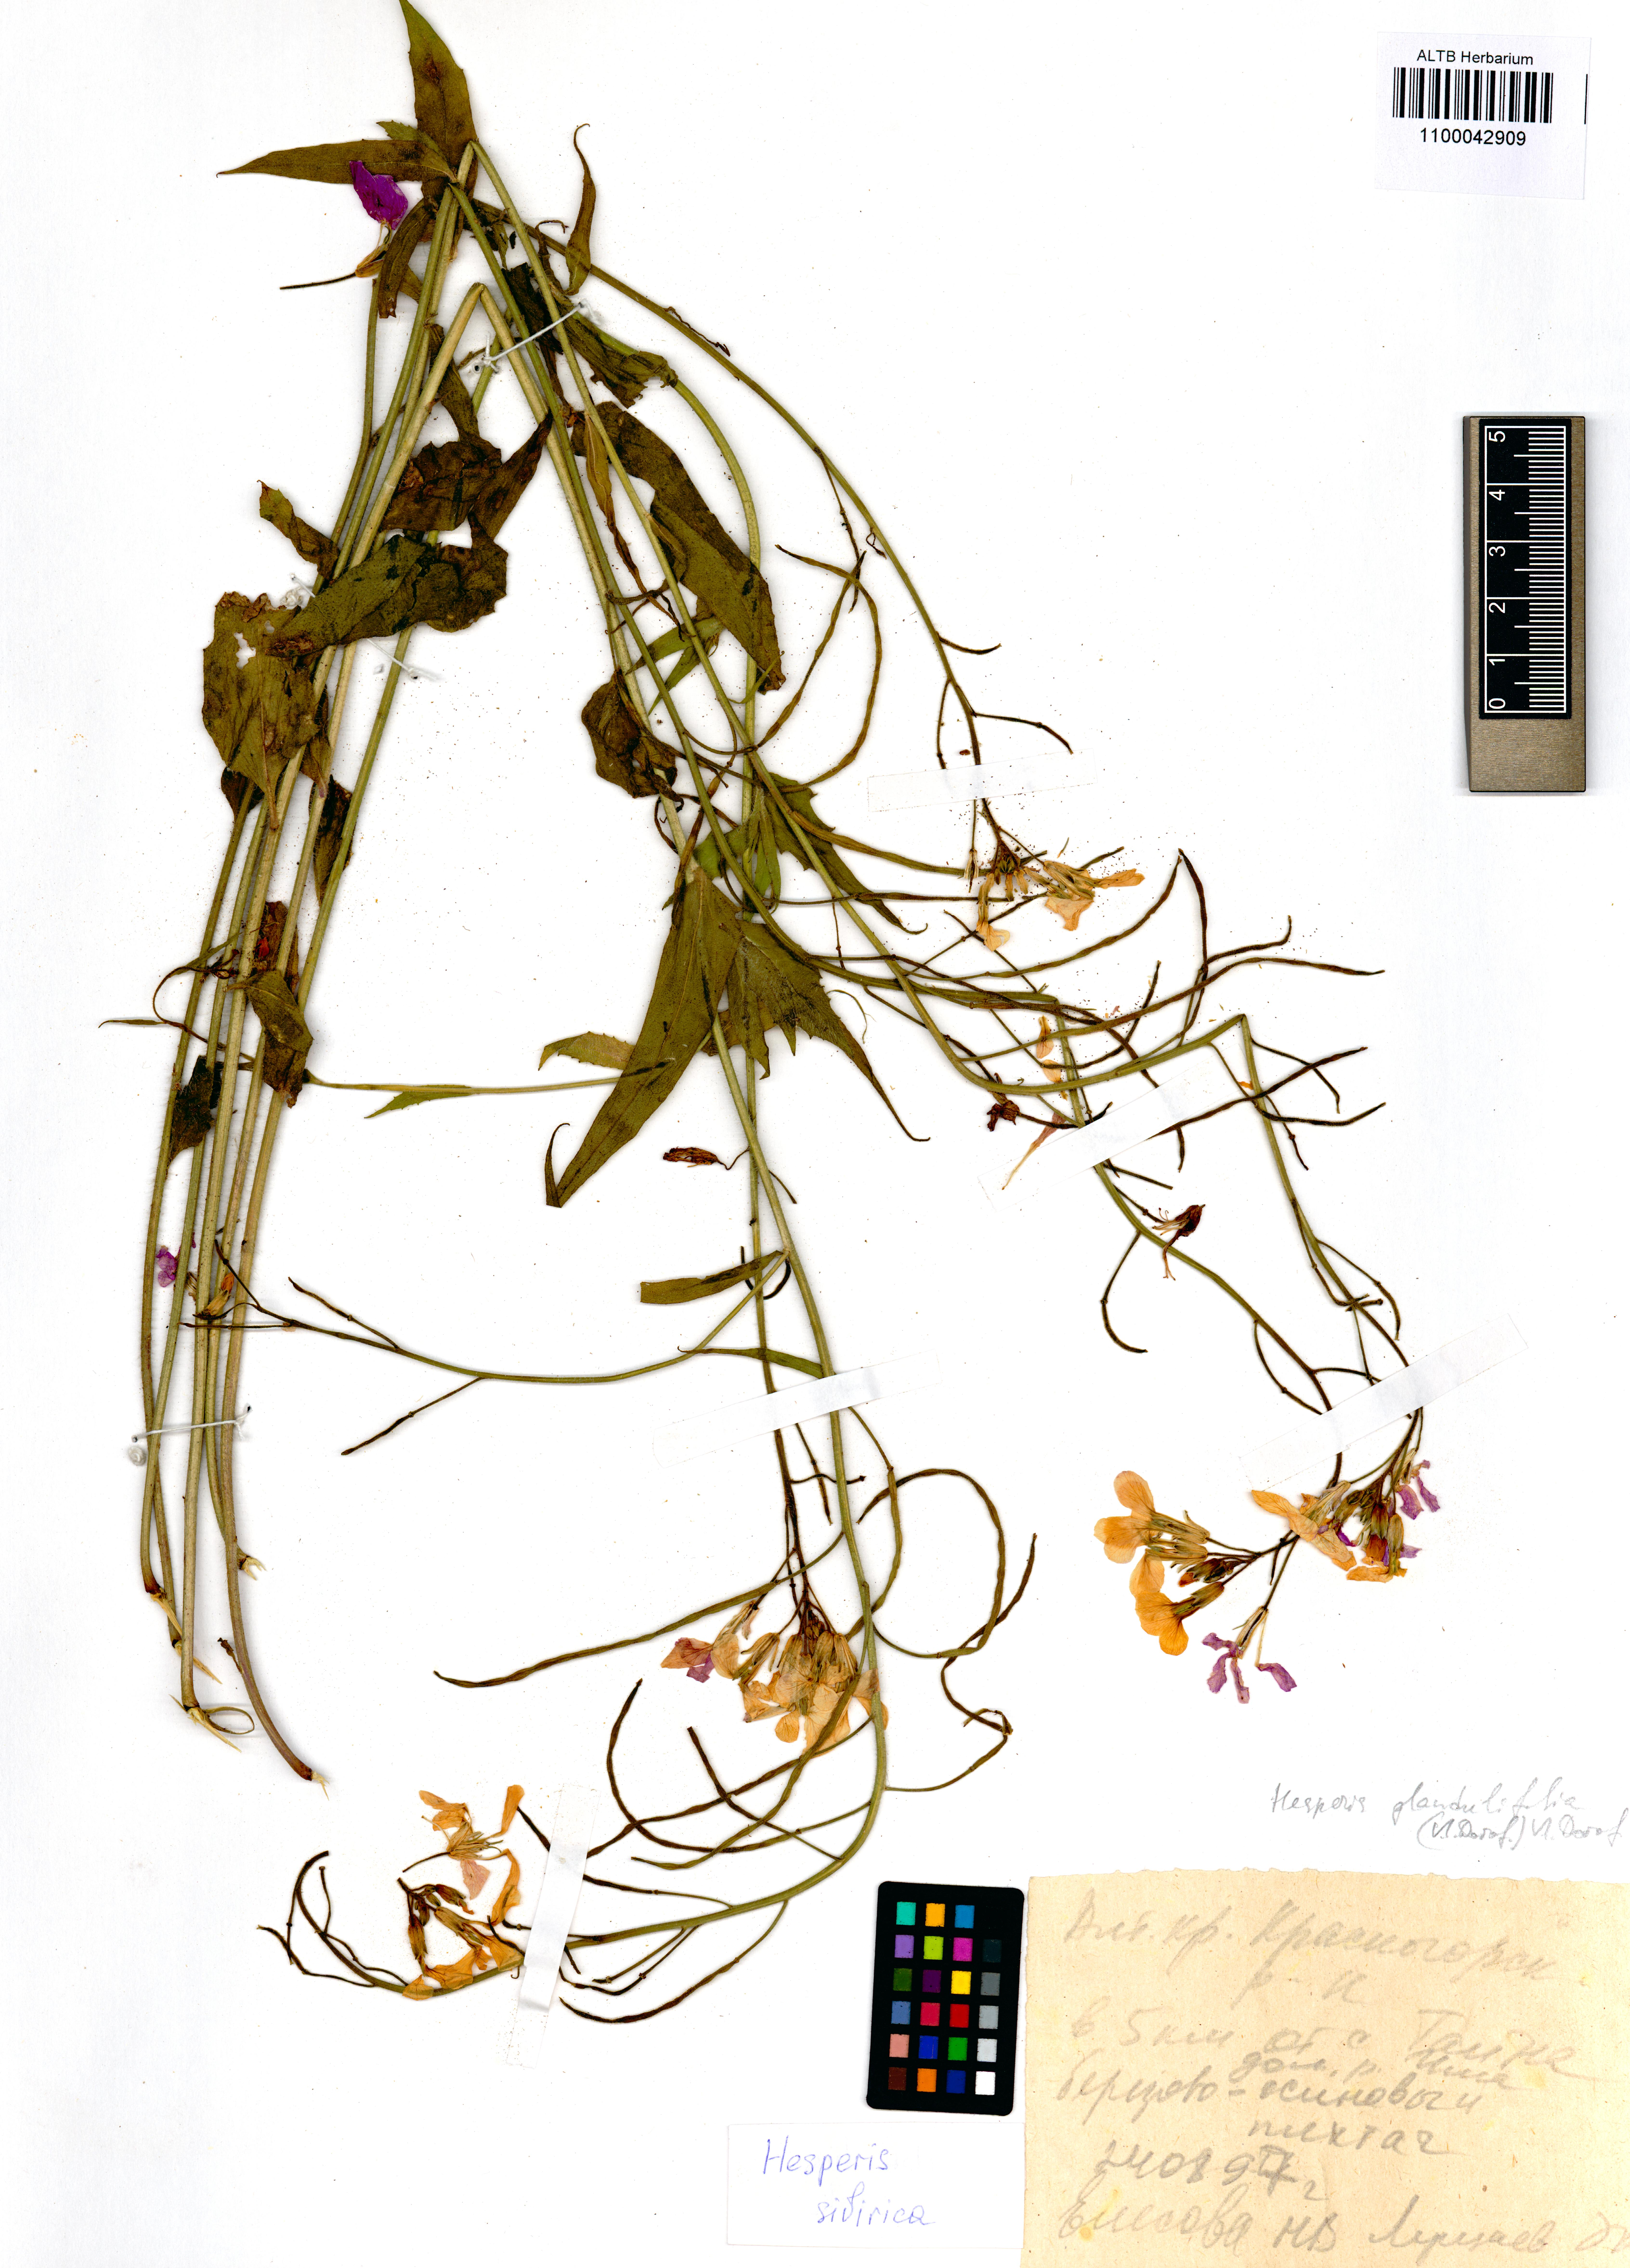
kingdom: Plantae
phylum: Tracheophyta
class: Magnoliopsida
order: Brassicales
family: Brassicaceae
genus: Hesperis
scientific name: Hesperis sibirica
